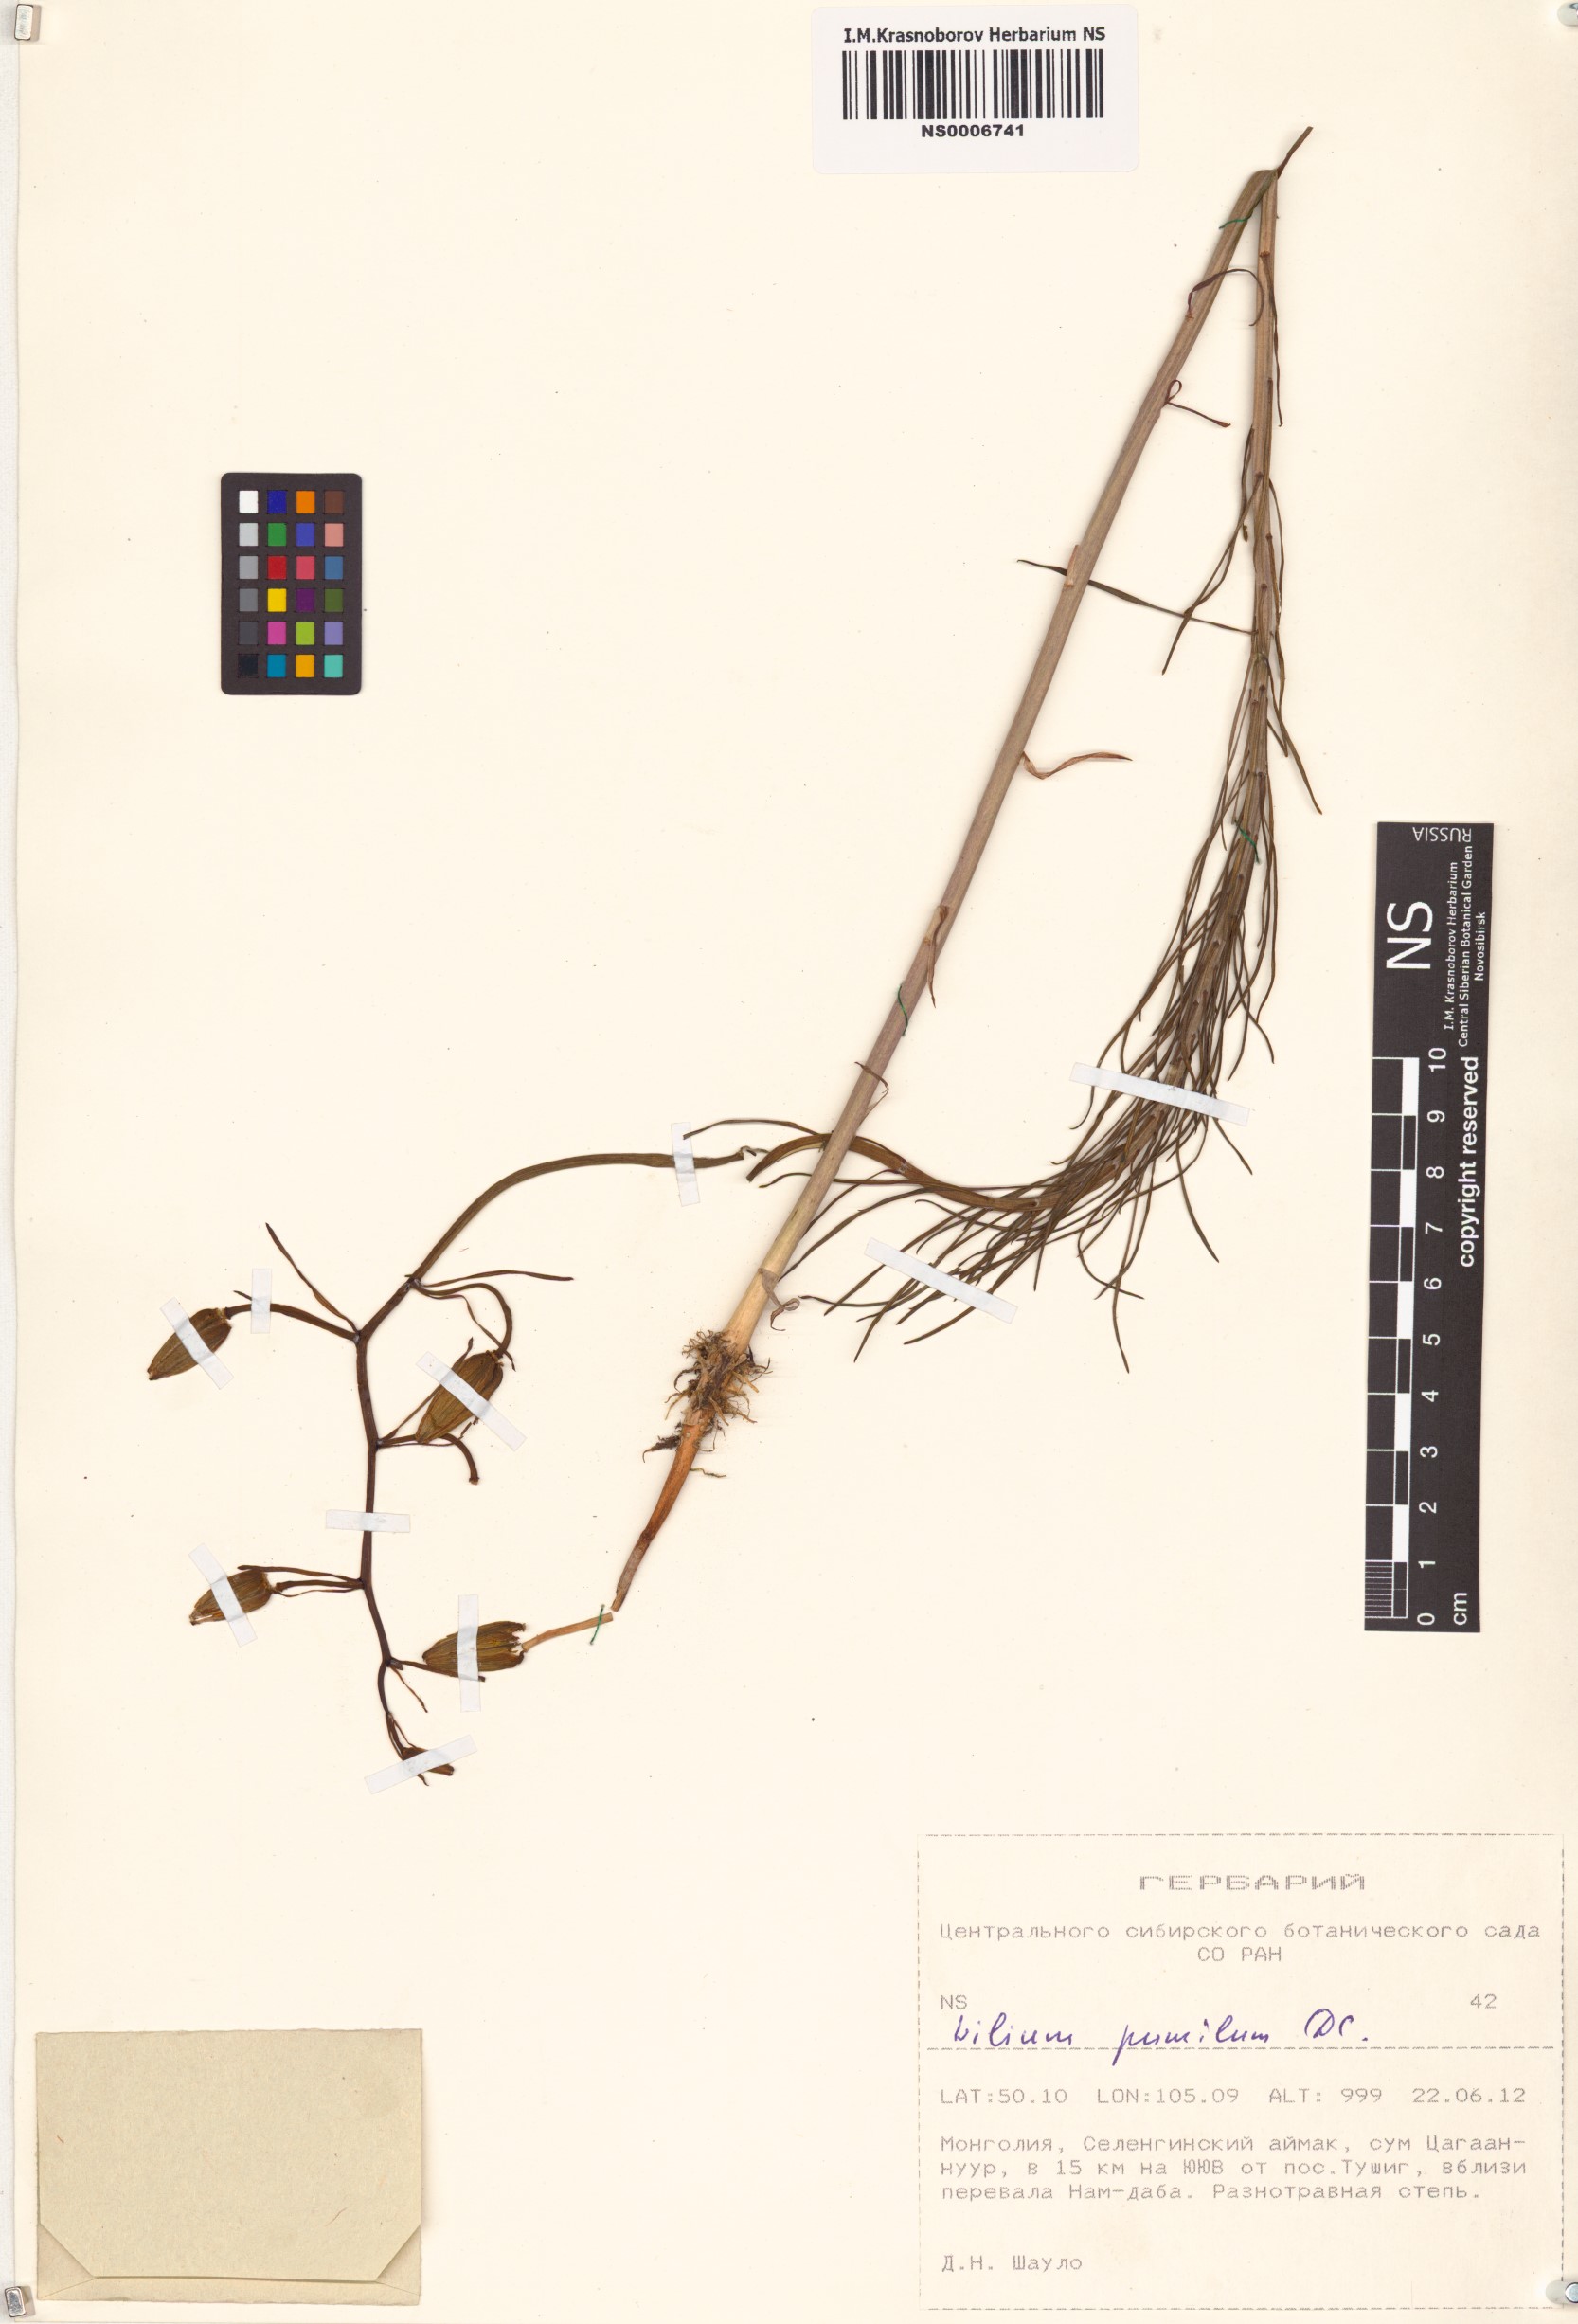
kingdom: Plantae
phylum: Tracheophyta
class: Liliopsida
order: Liliales
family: Liliaceae
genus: Lilium
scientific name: Lilium pumilum
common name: Coral lily
